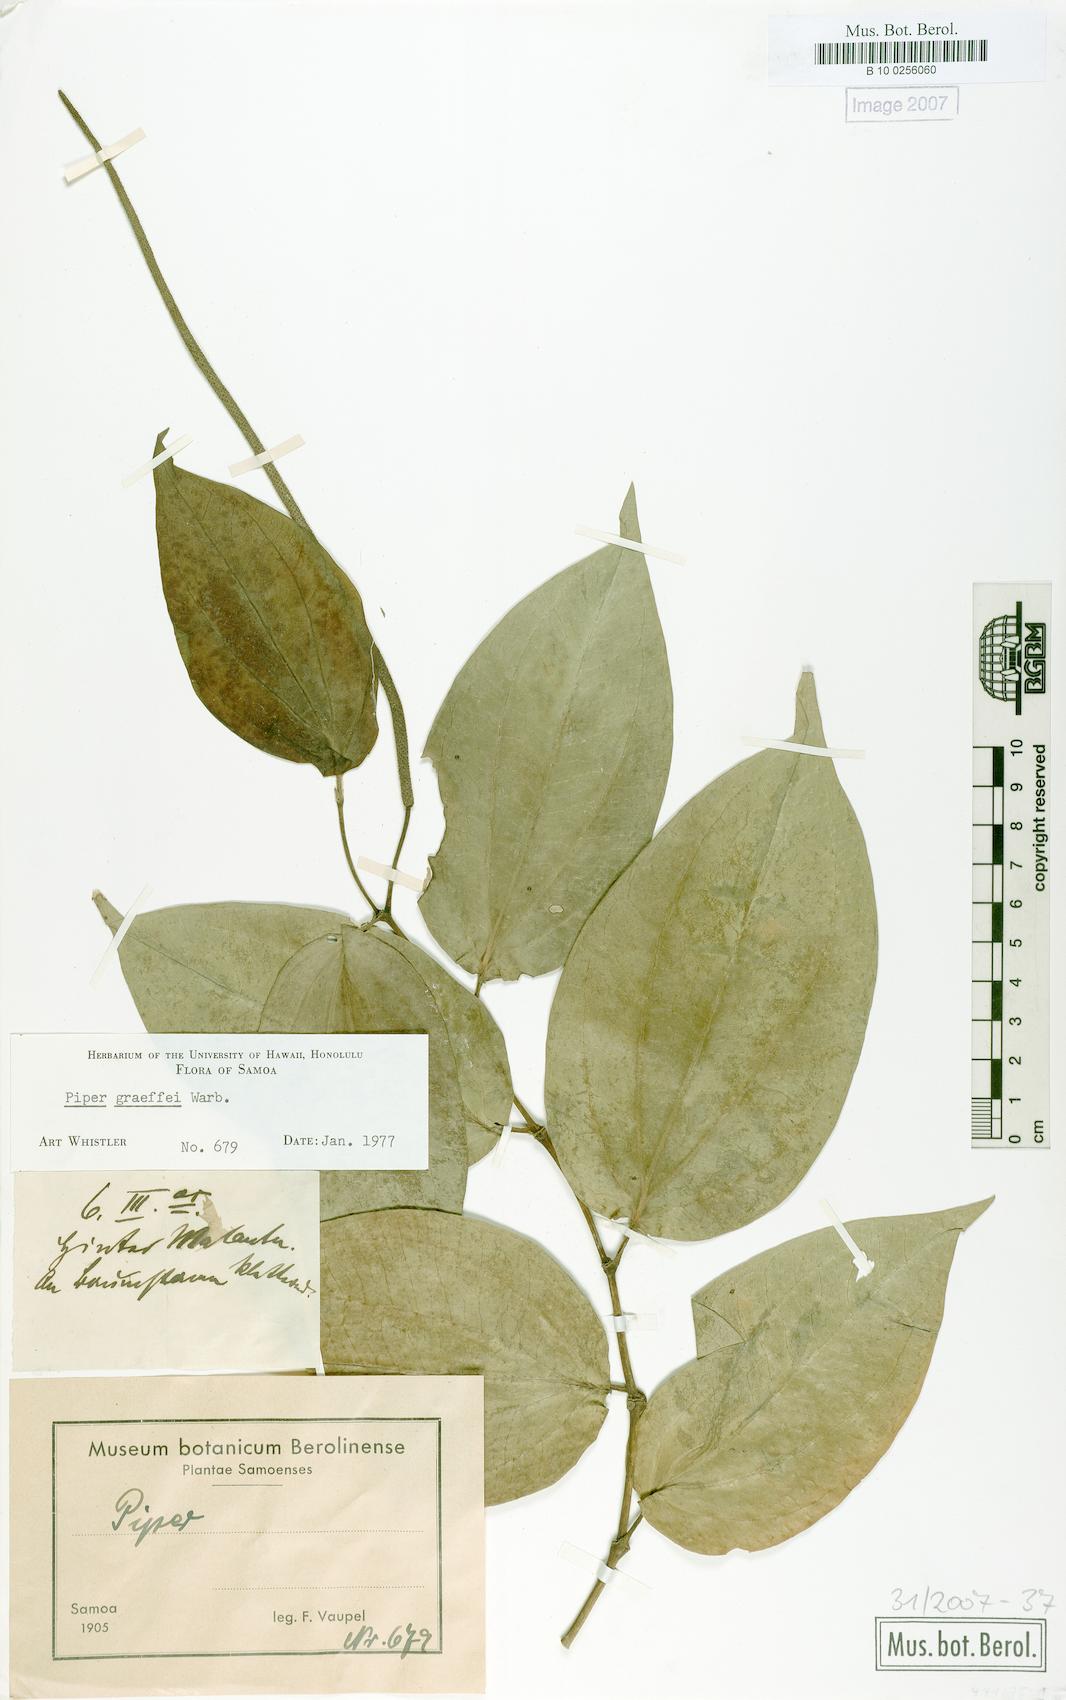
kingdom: Plantae
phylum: Tracheophyta
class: Magnoliopsida
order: Piperales
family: Piperaceae
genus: Piper
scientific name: Piper graeffei
